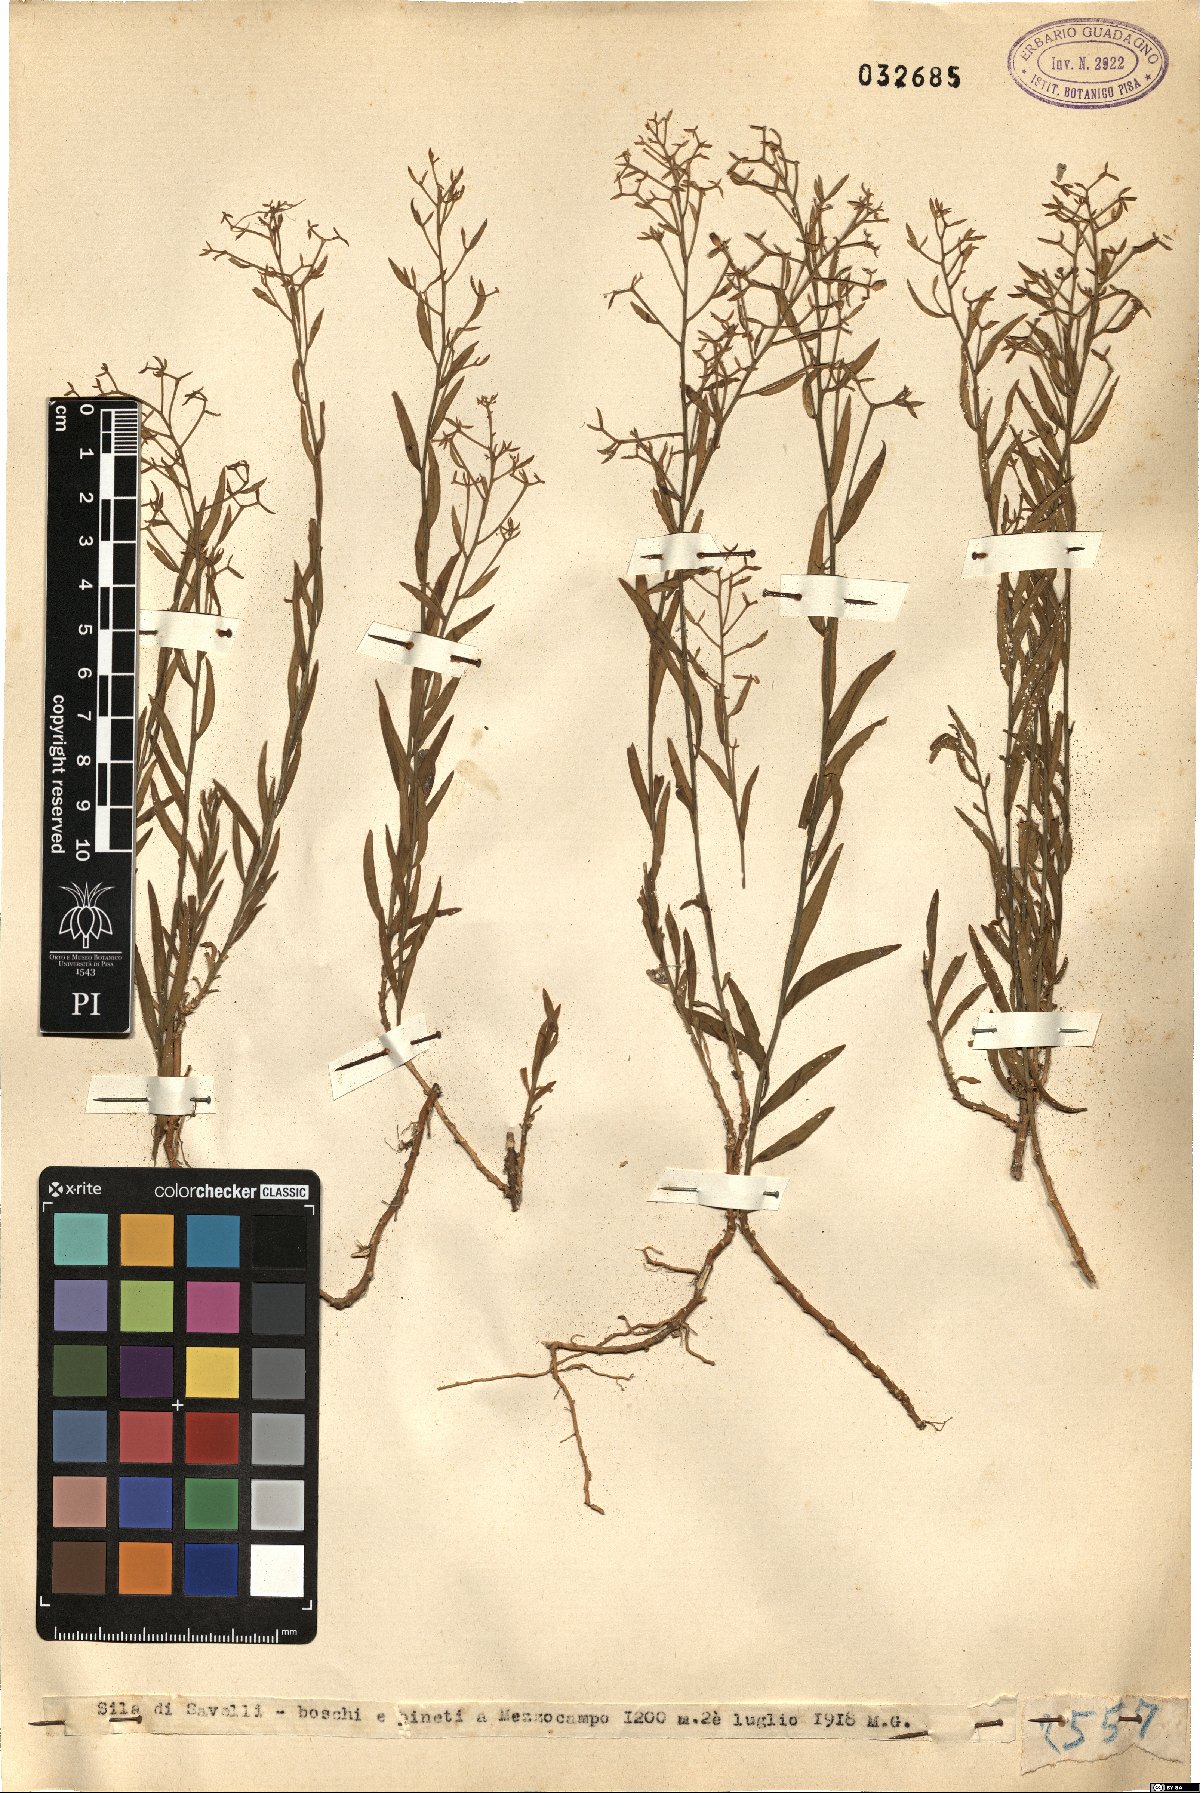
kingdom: Plantae
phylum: Tracheophyta
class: Magnoliopsida
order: Santalales
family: Thesiaceae
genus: Thesium
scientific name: Thesium
